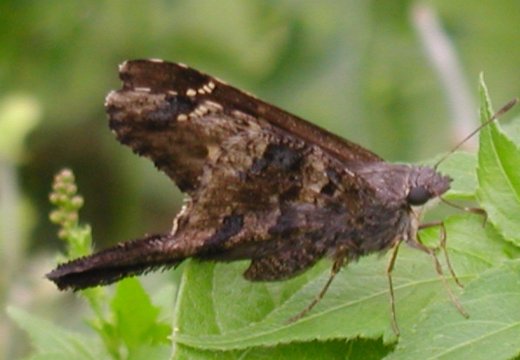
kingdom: Animalia
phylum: Arthropoda
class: Insecta
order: Lepidoptera
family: Hesperiidae
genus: Typhedanus
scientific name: Typhedanus undulatus
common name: Mottled Longtail
